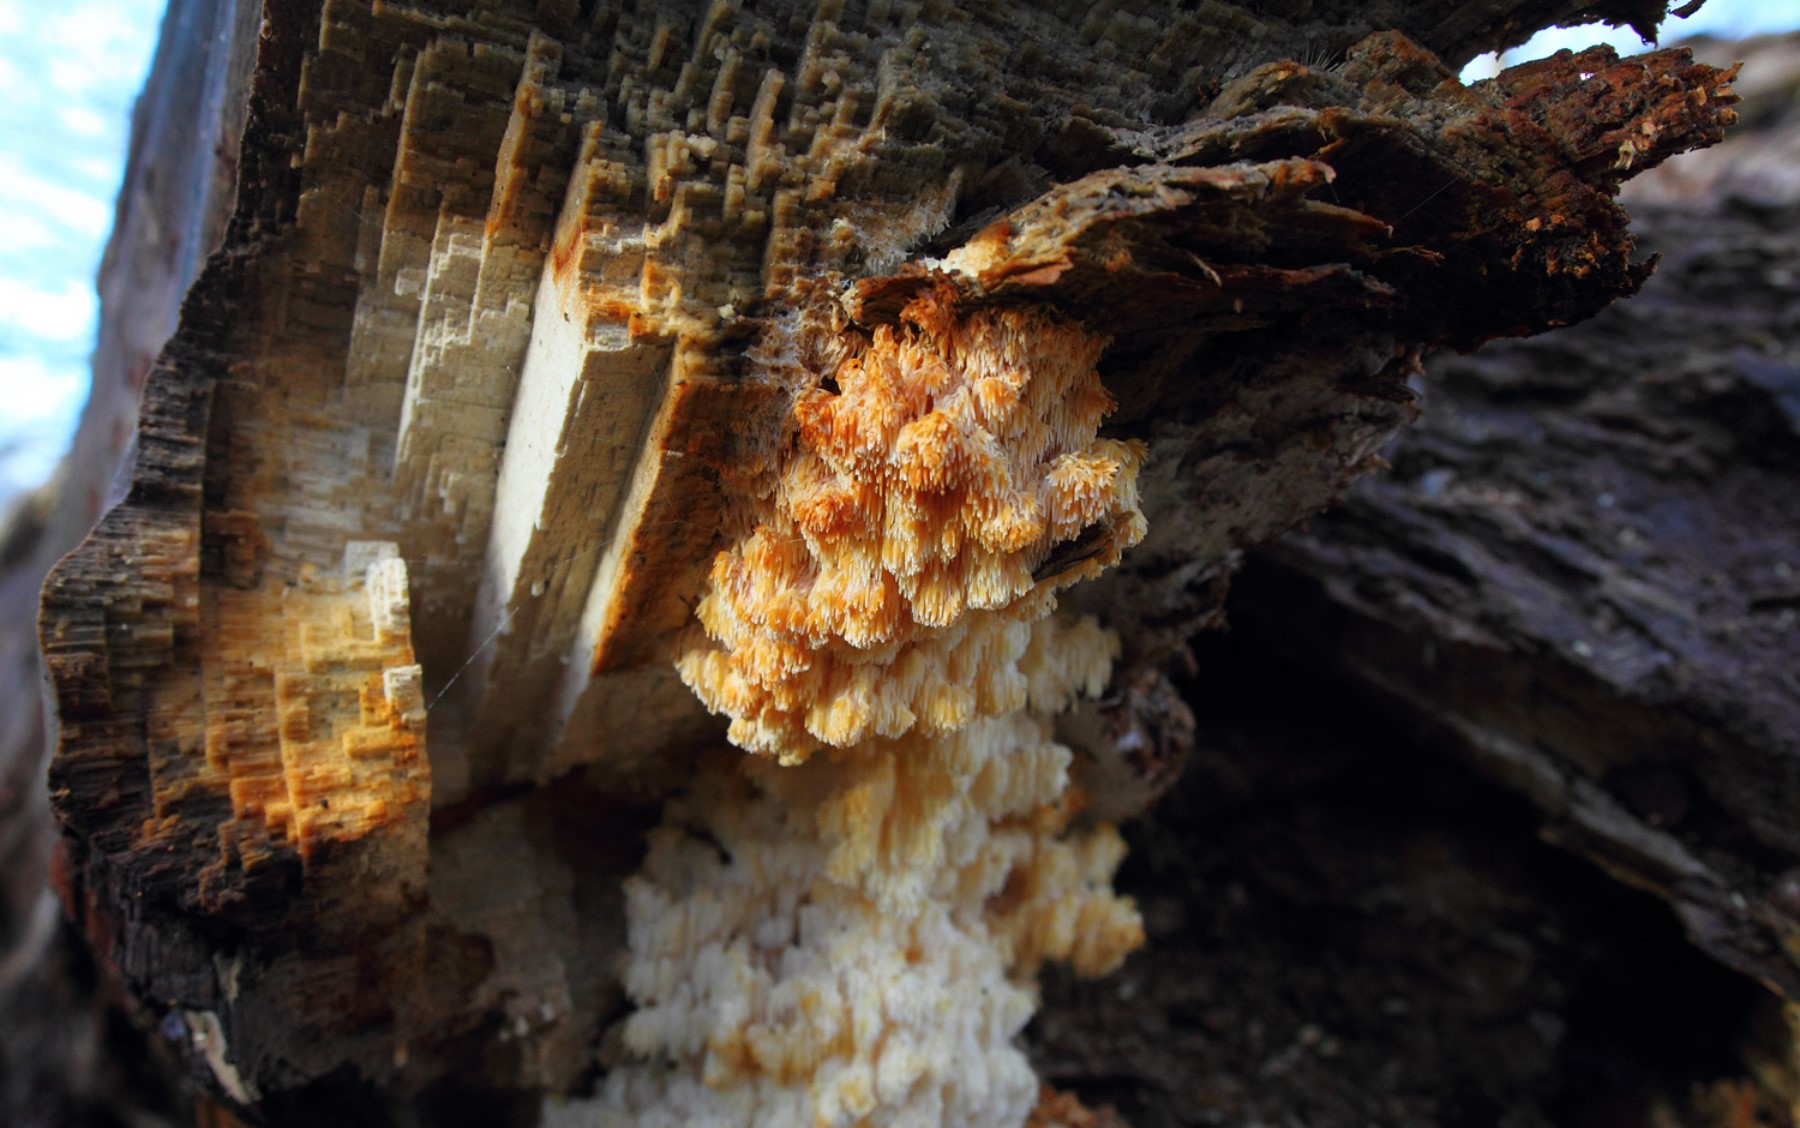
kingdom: Fungi
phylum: Basidiomycota
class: Agaricomycetes
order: Russulales
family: Hericiaceae
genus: Hericium
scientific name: Hericium coralloides
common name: koralpigsvamp
